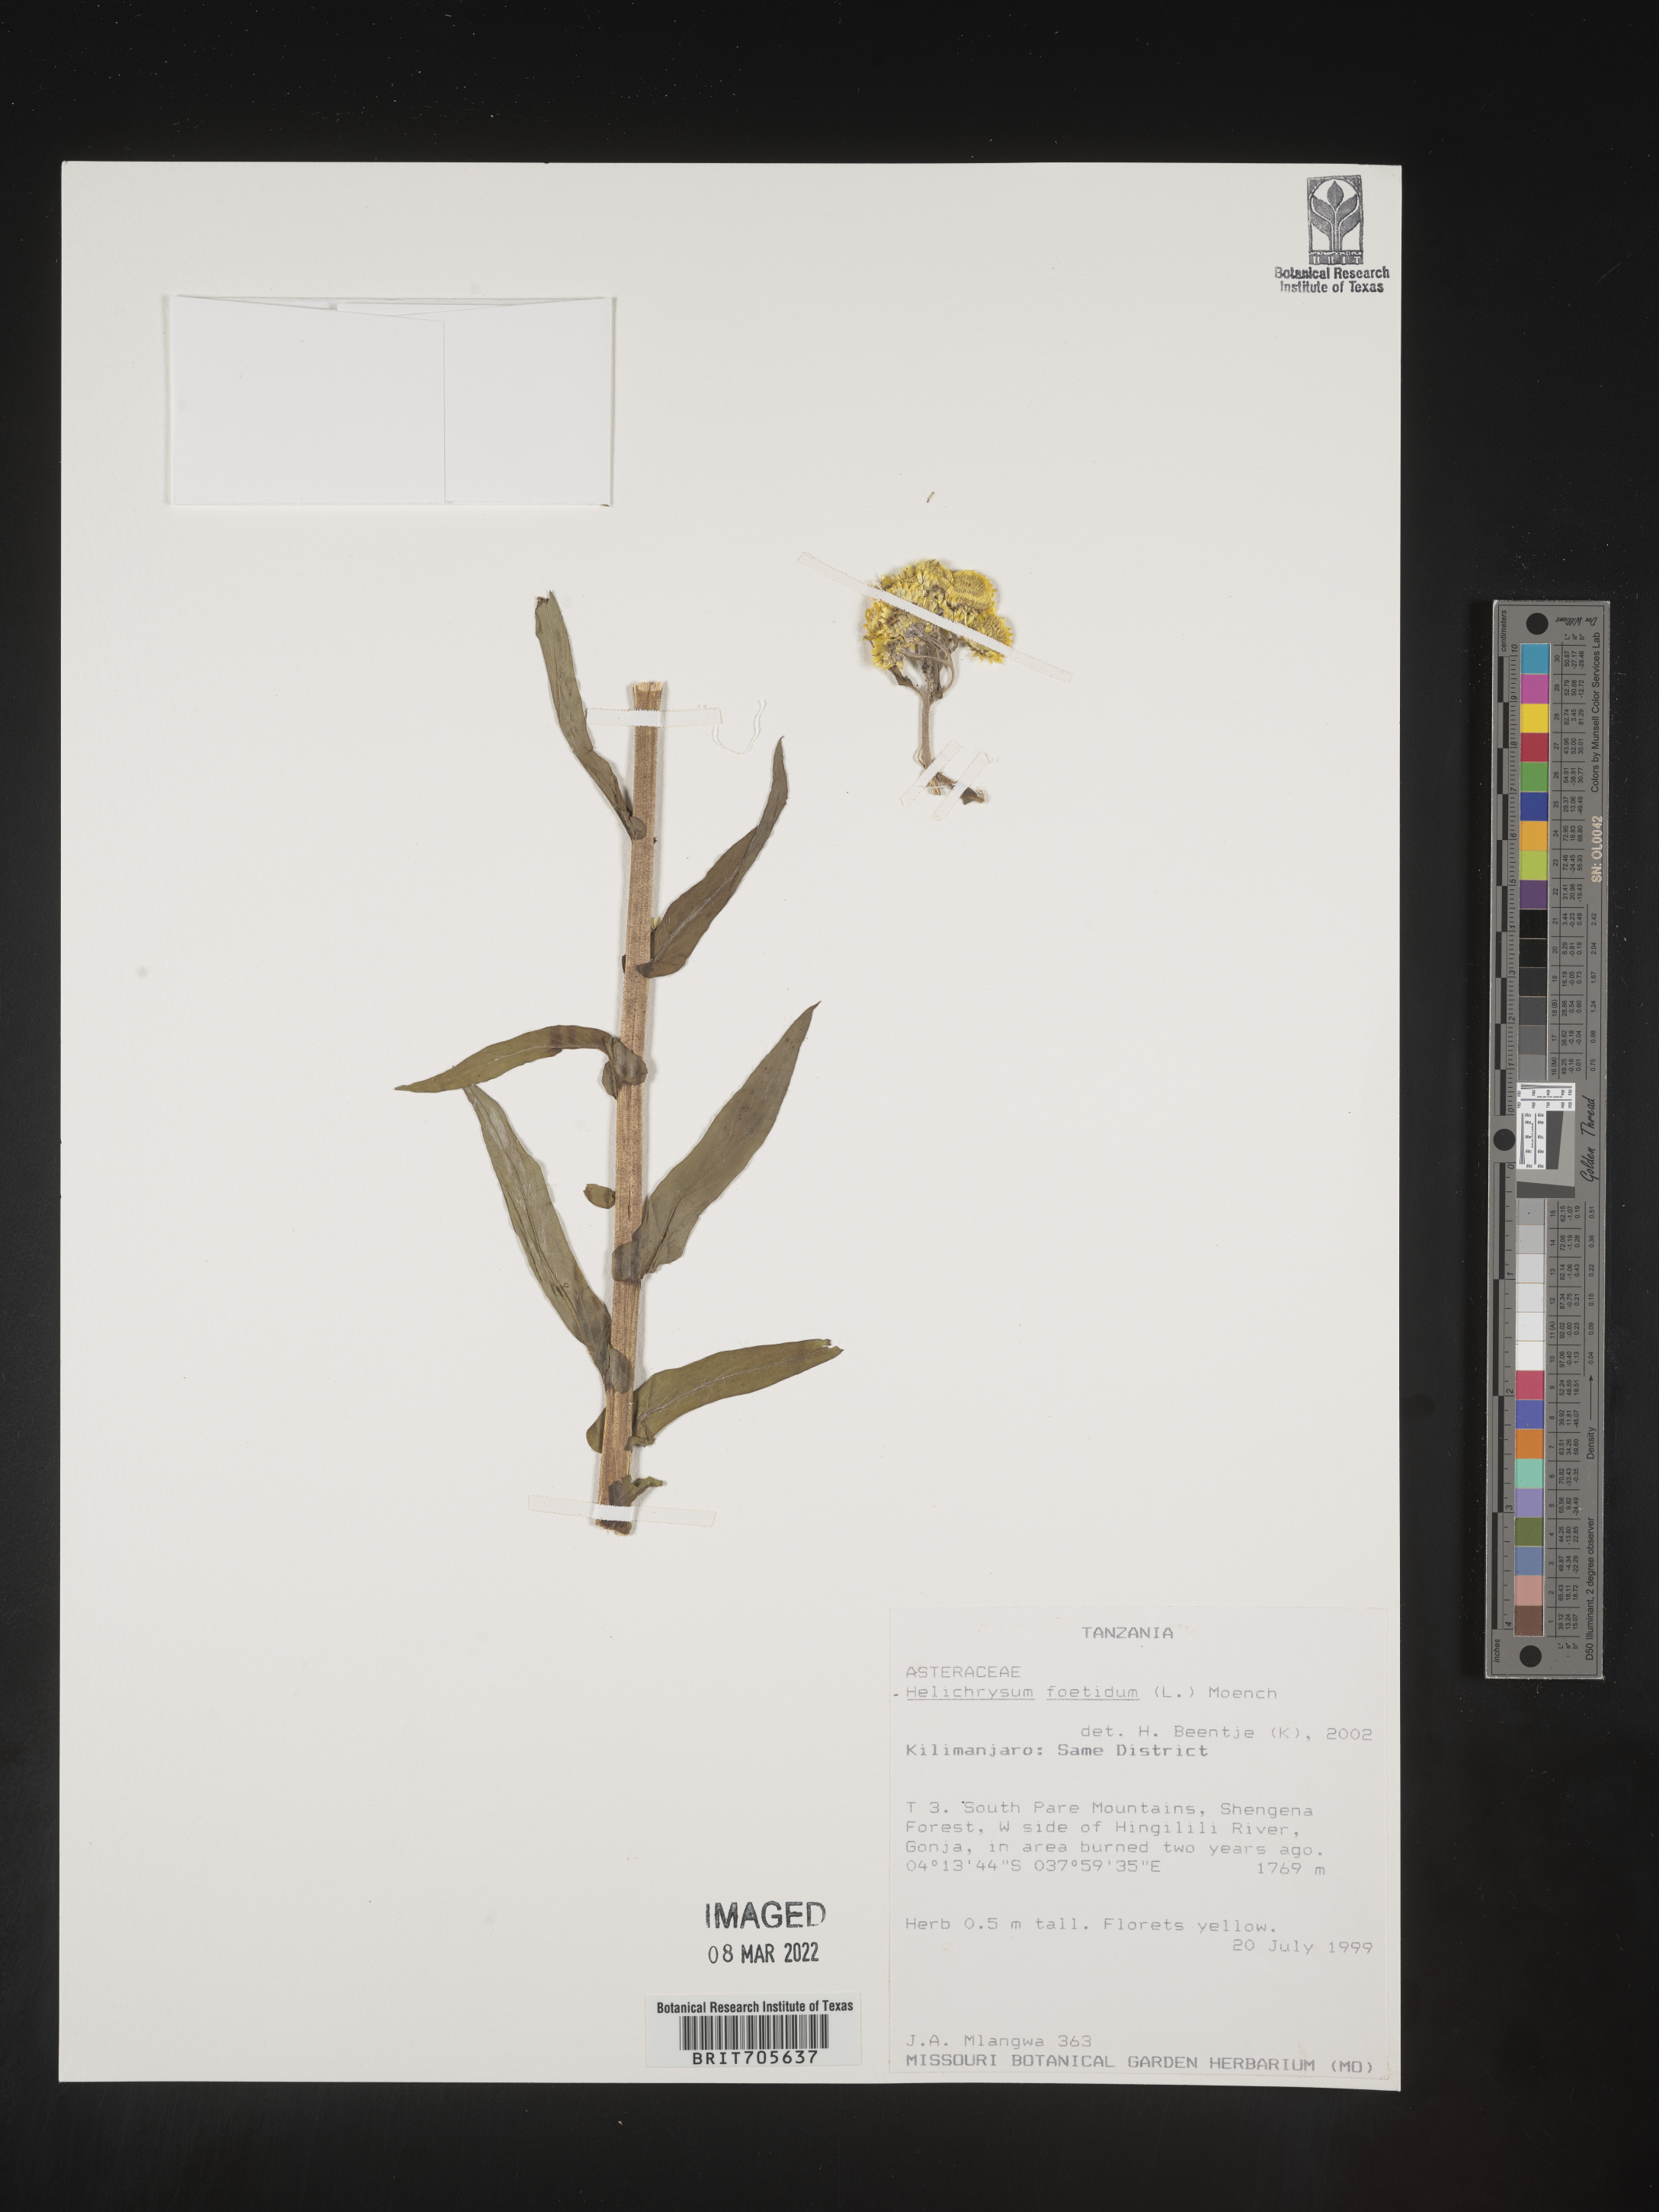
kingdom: Plantae
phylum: Tracheophyta
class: Magnoliopsida
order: Asterales
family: Asteraceae
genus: Helichrysum
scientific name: Helichrysum
